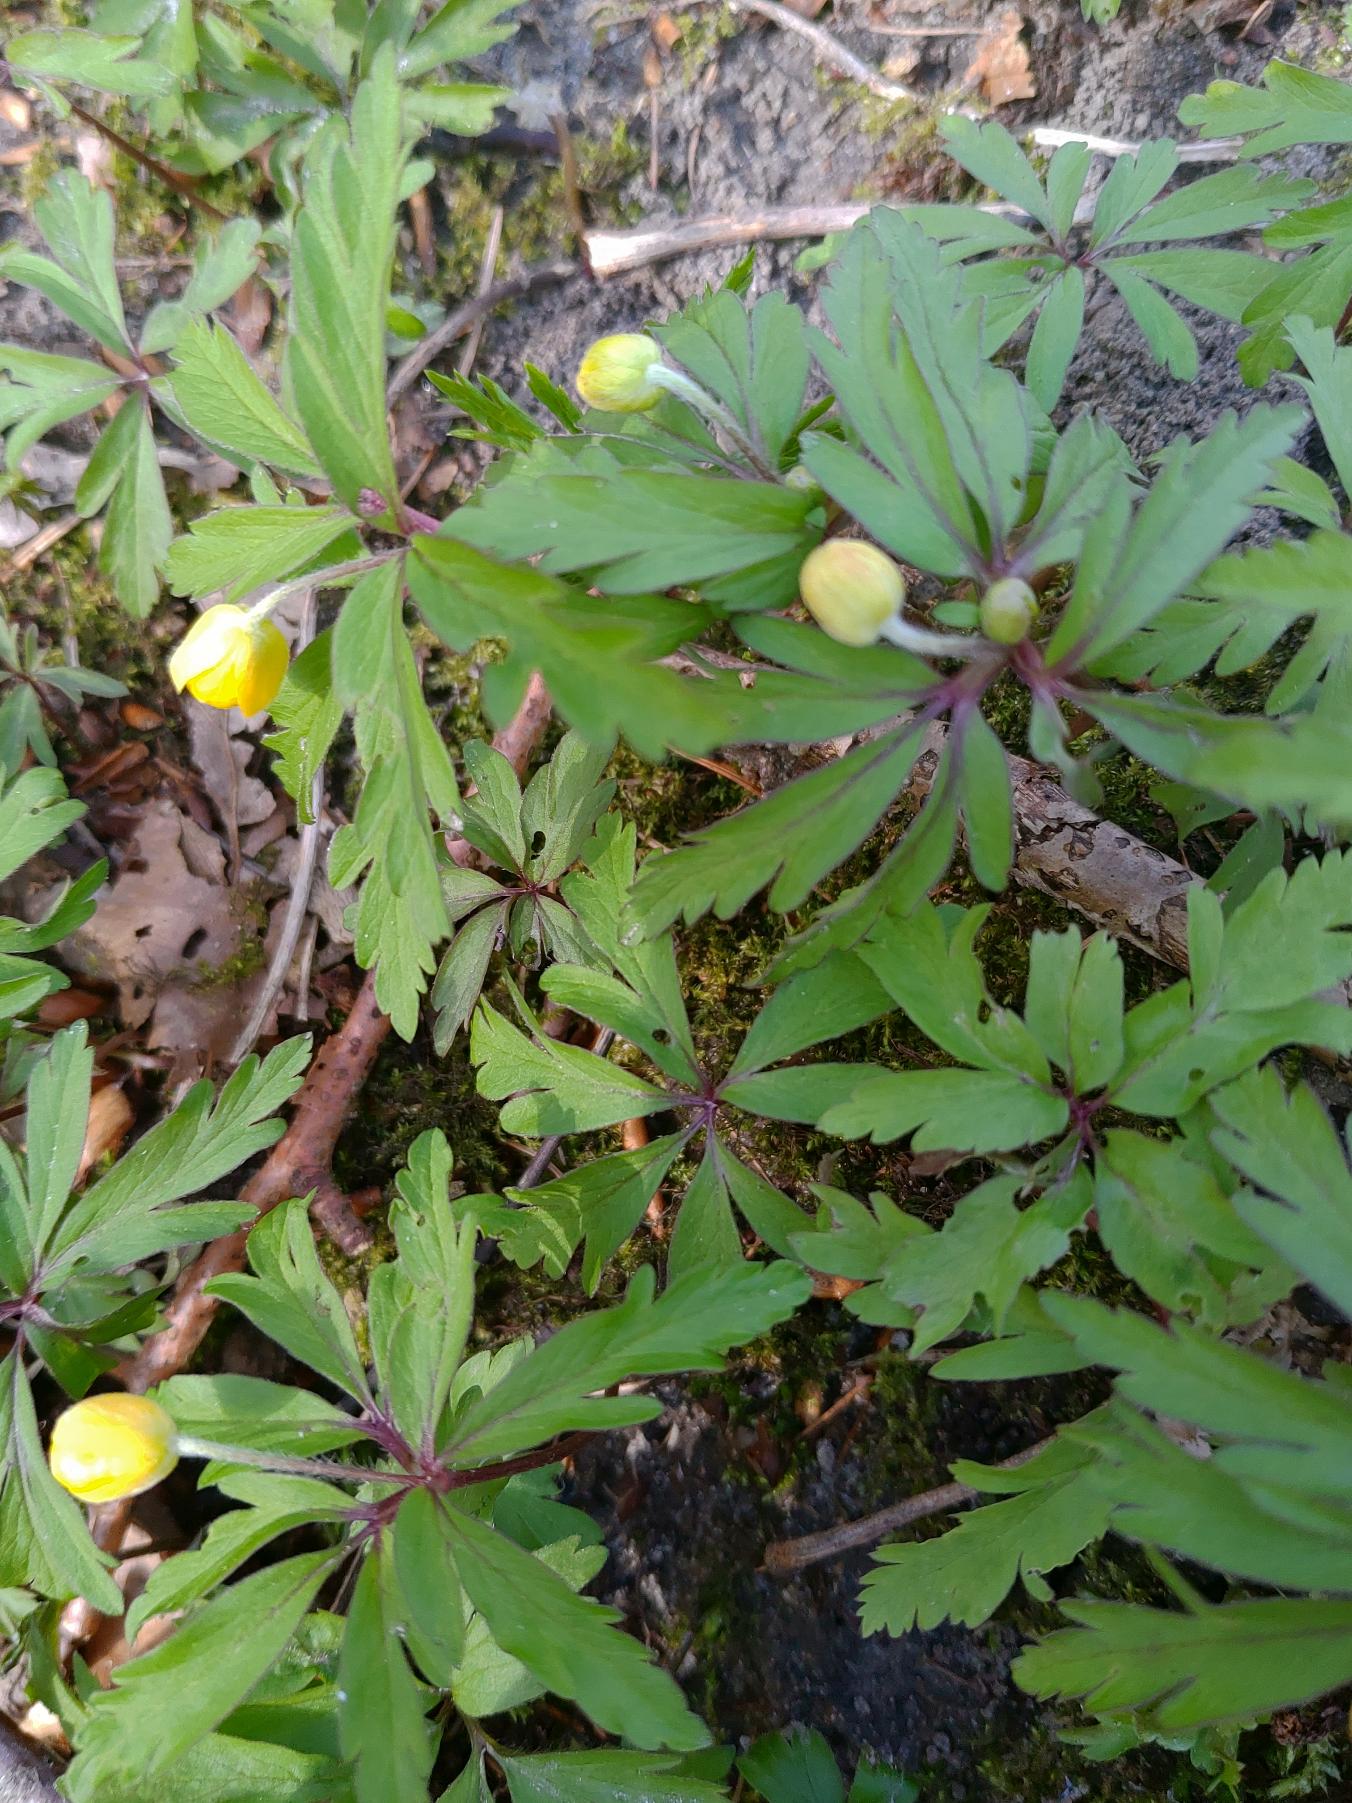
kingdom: Plantae
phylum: Tracheophyta
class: Magnoliopsida
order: Ranunculales
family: Ranunculaceae
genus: Anemone
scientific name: Anemone ranunculoides
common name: Gul anemone
